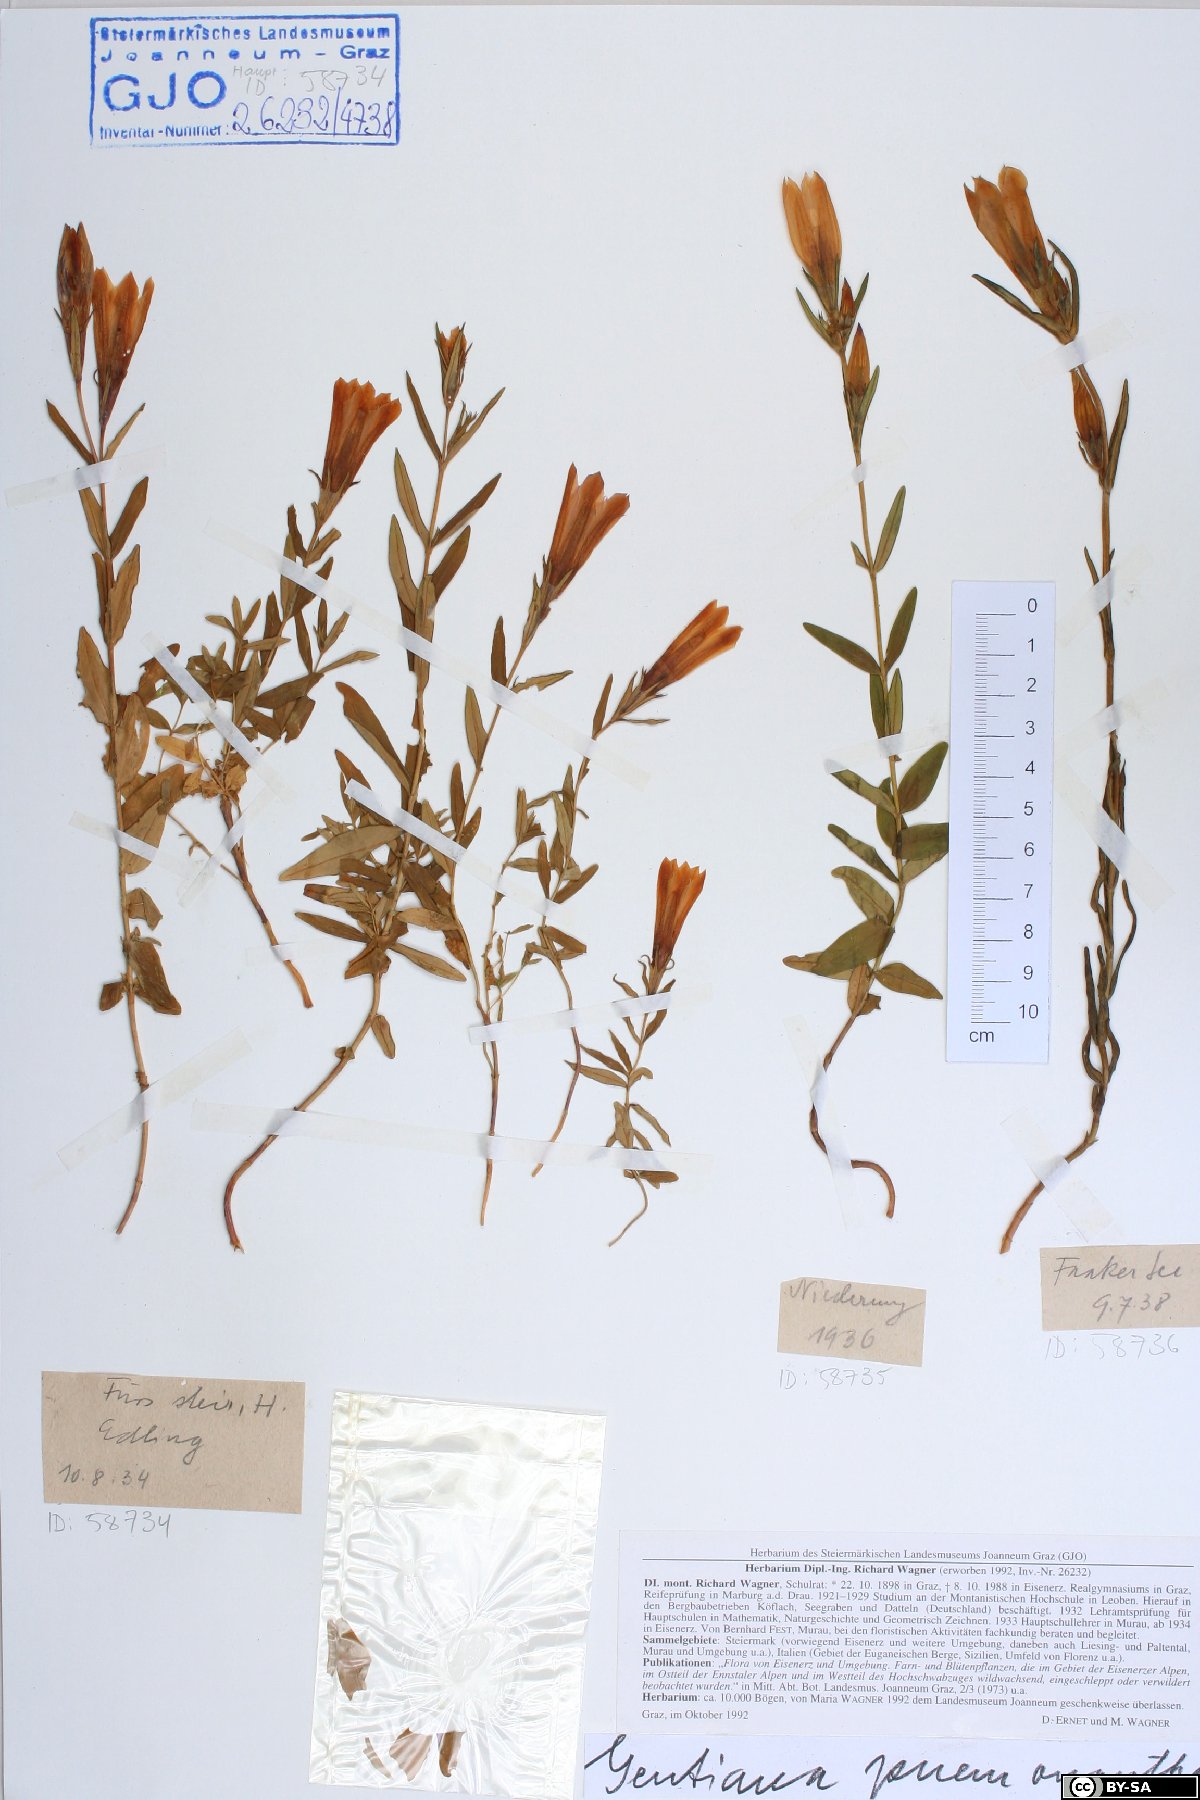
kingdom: Plantae
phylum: Tracheophyta
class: Magnoliopsida
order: Gentianales
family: Gentianaceae
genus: Gentiana
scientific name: Gentiana pneumonanthe
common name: Marsh gentian
